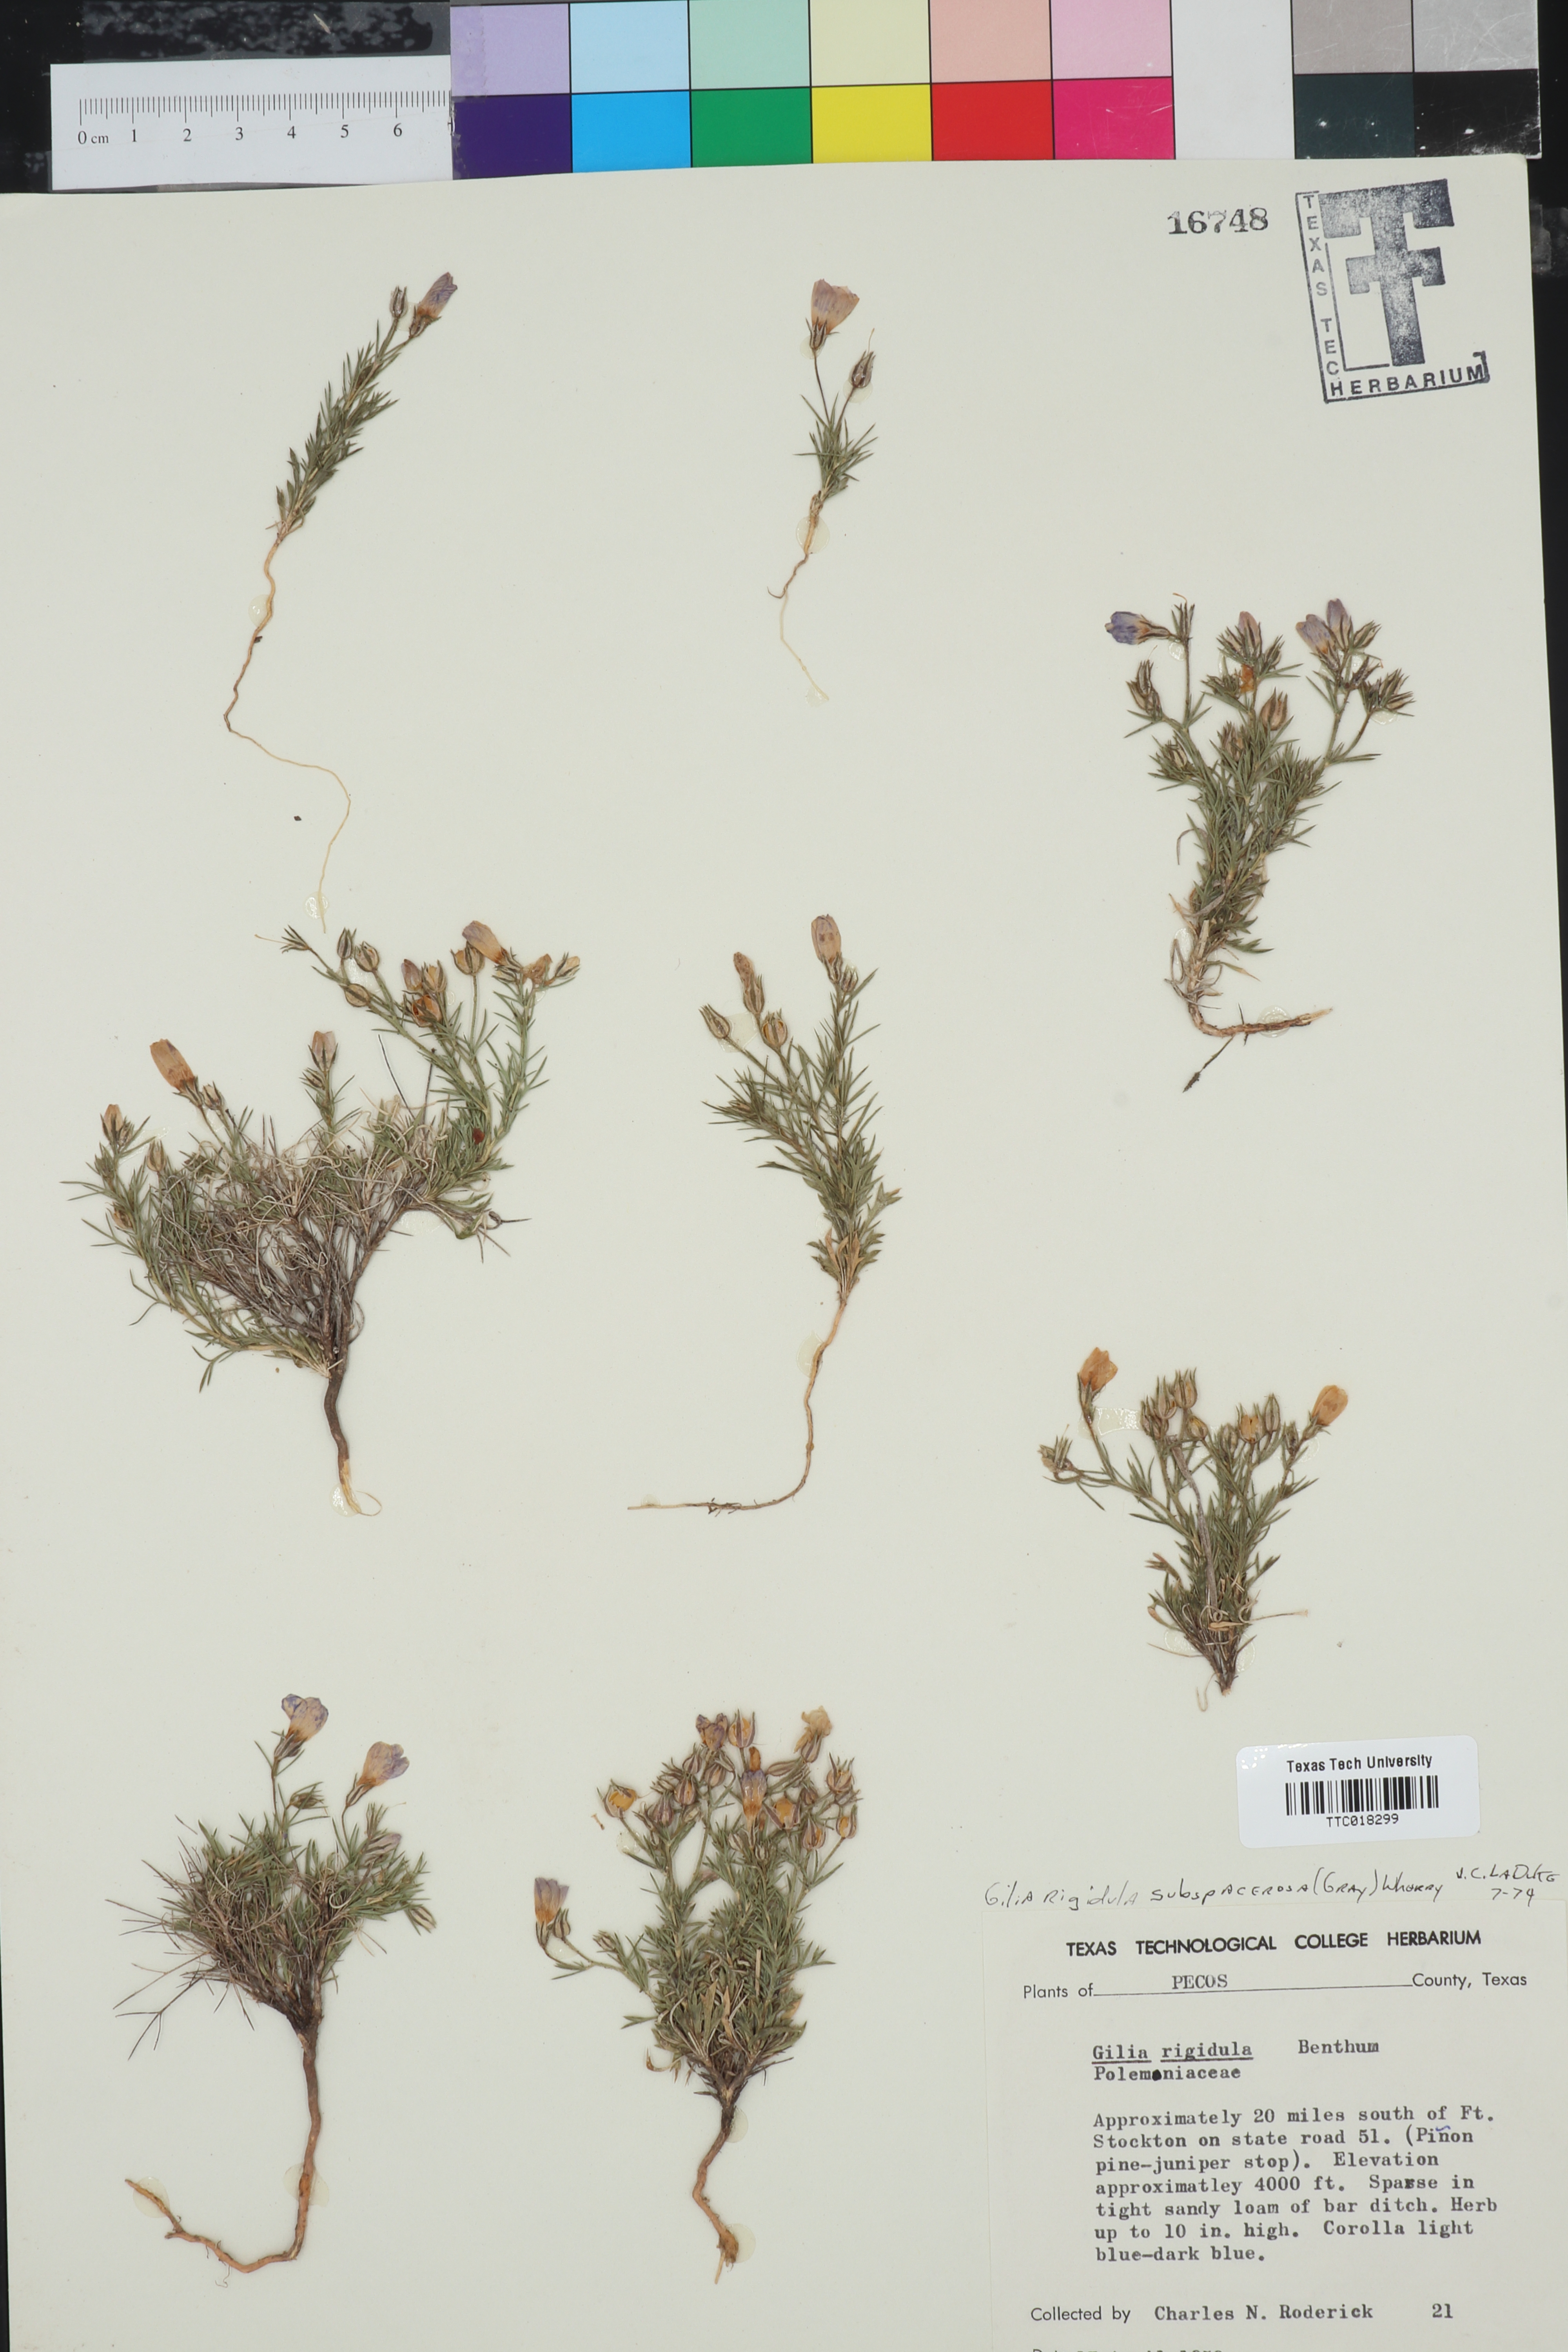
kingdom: Plantae
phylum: Tracheophyta
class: Magnoliopsida
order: Ericales
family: Polemoniaceae
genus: Giliastrum
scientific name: Giliastrum acerosum
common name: Bluebowls
